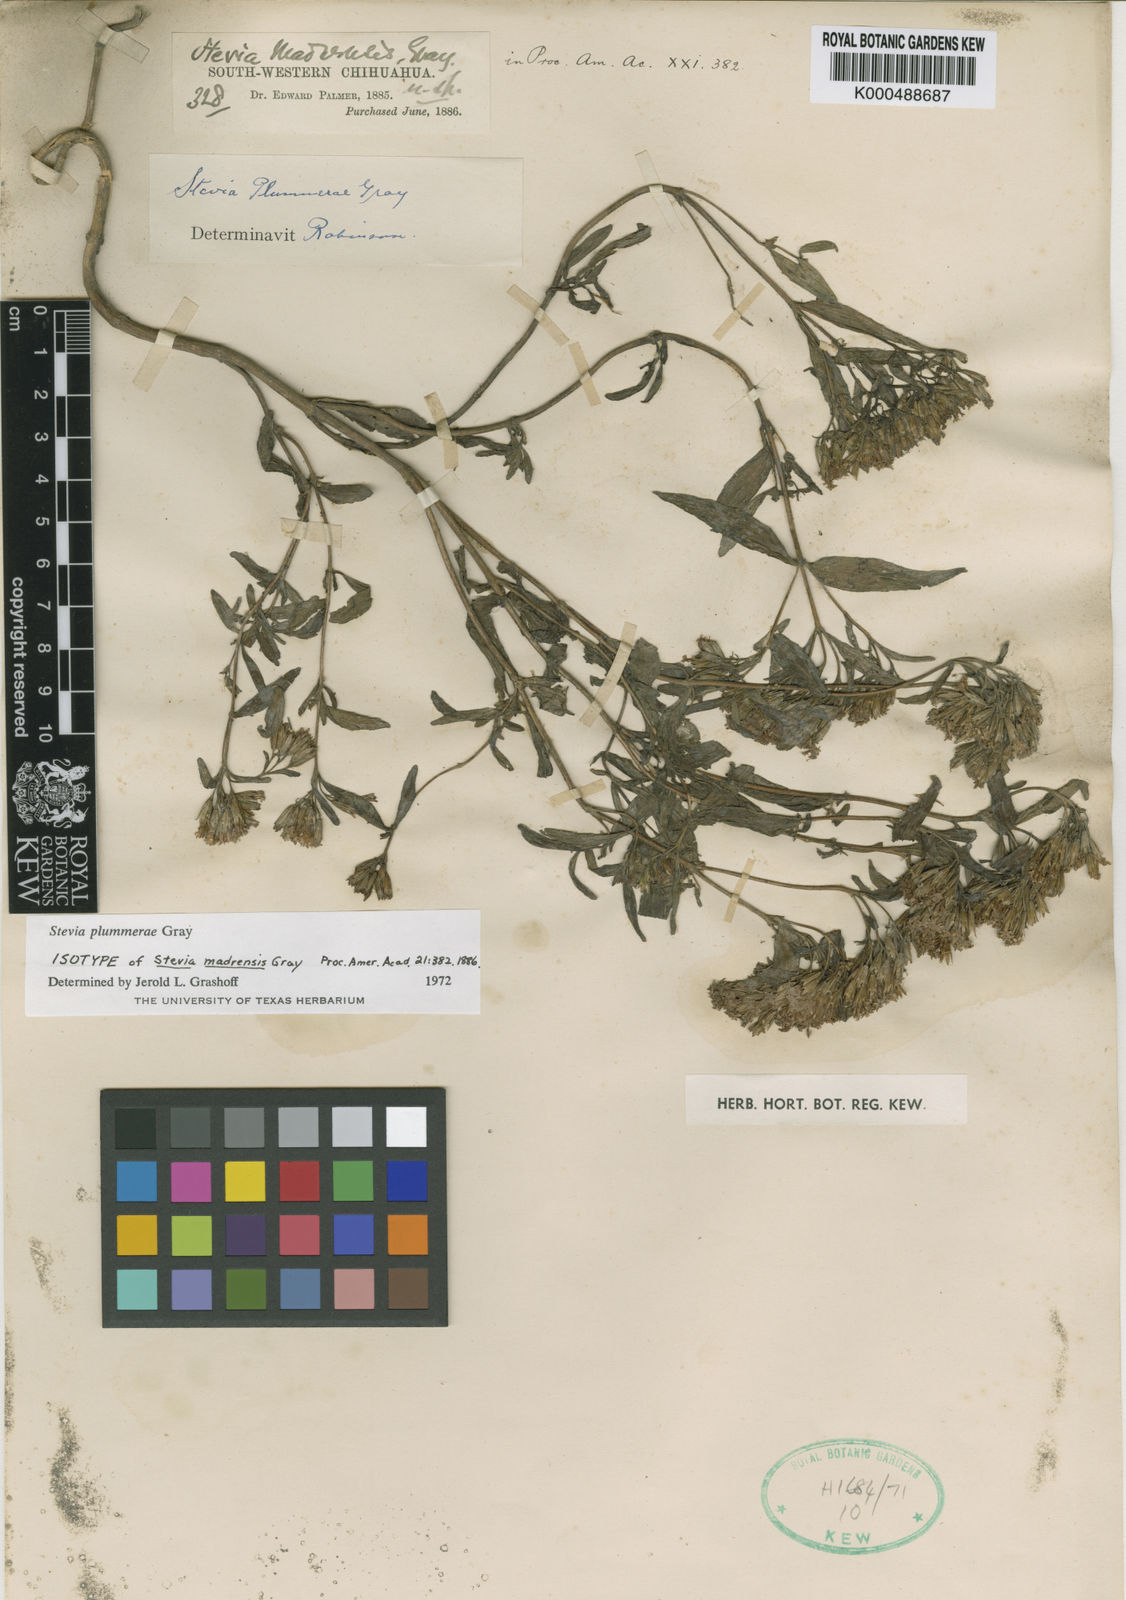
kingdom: Plantae
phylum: Tracheophyta
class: Magnoliopsida
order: Asterales
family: Asteraceae
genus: Stevia
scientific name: Stevia plummerae
